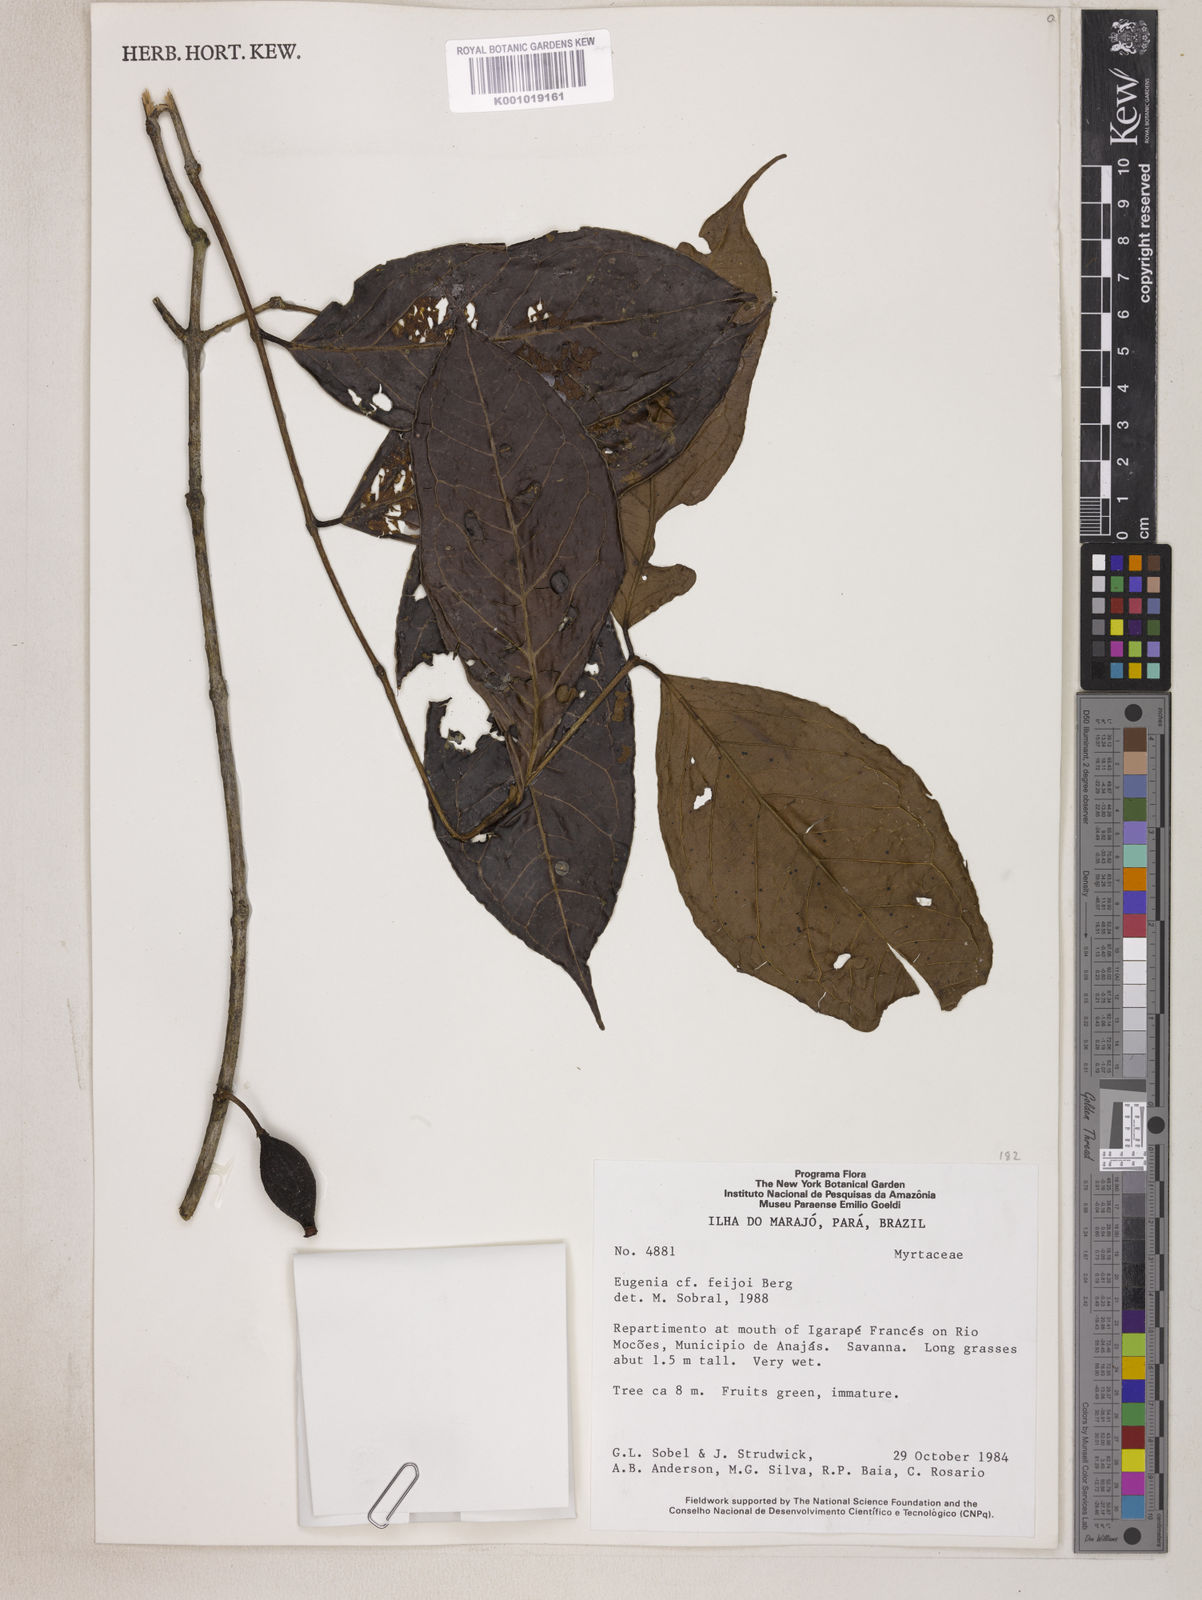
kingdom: Plantae
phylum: Tracheophyta
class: Magnoliopsida
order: Myrtales
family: Myrtaceae
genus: Eugenia
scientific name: Eugenia moschata
